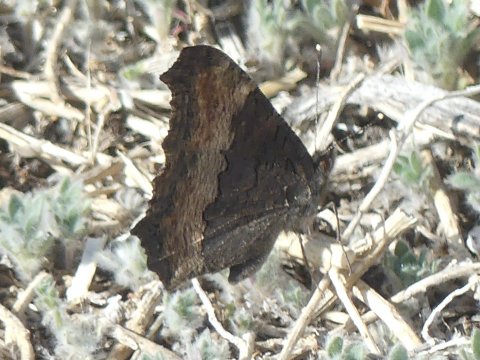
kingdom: Animalia
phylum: Arthropoda
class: Insecta
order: Lepidoptera
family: Nymphalidae
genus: Aglais
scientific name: Aglais milberti
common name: Milbert's Tortoiseshell
